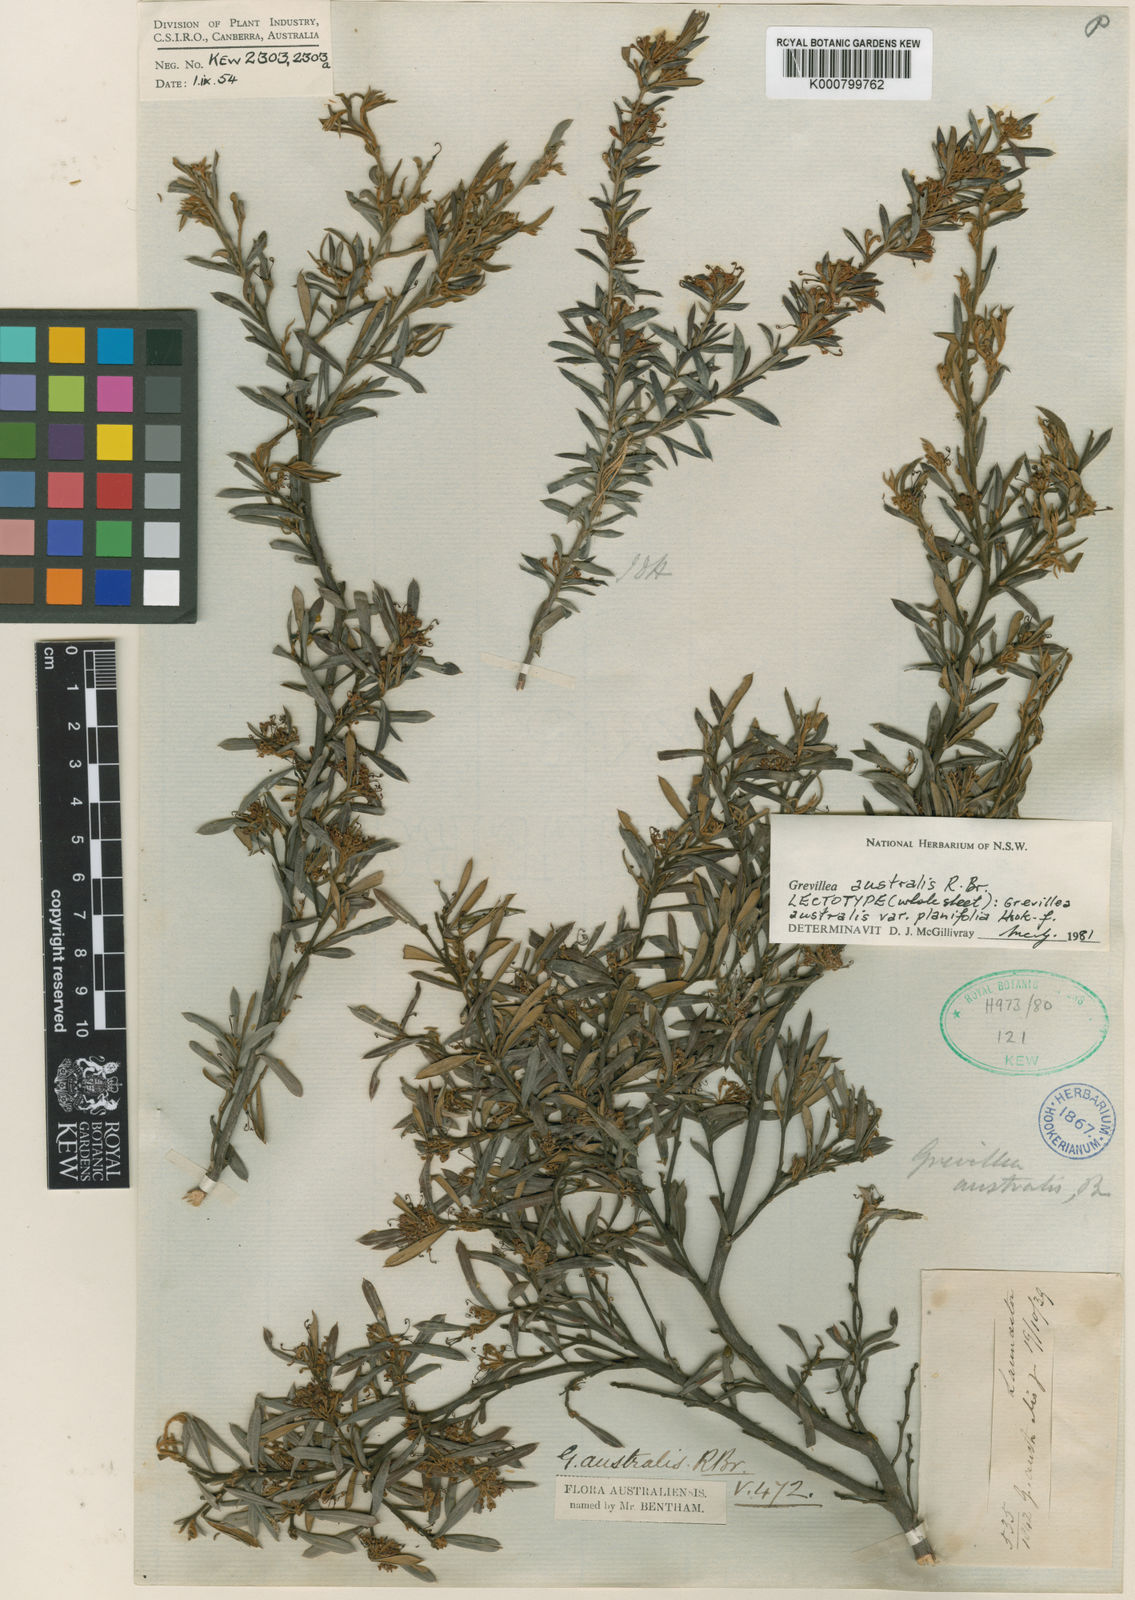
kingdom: Plantae
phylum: Tracheophyta
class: Magnoliopsida
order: Proteales
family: Proteaceae
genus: Grevillea
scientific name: Grevillea australis
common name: Alpine grevillea
